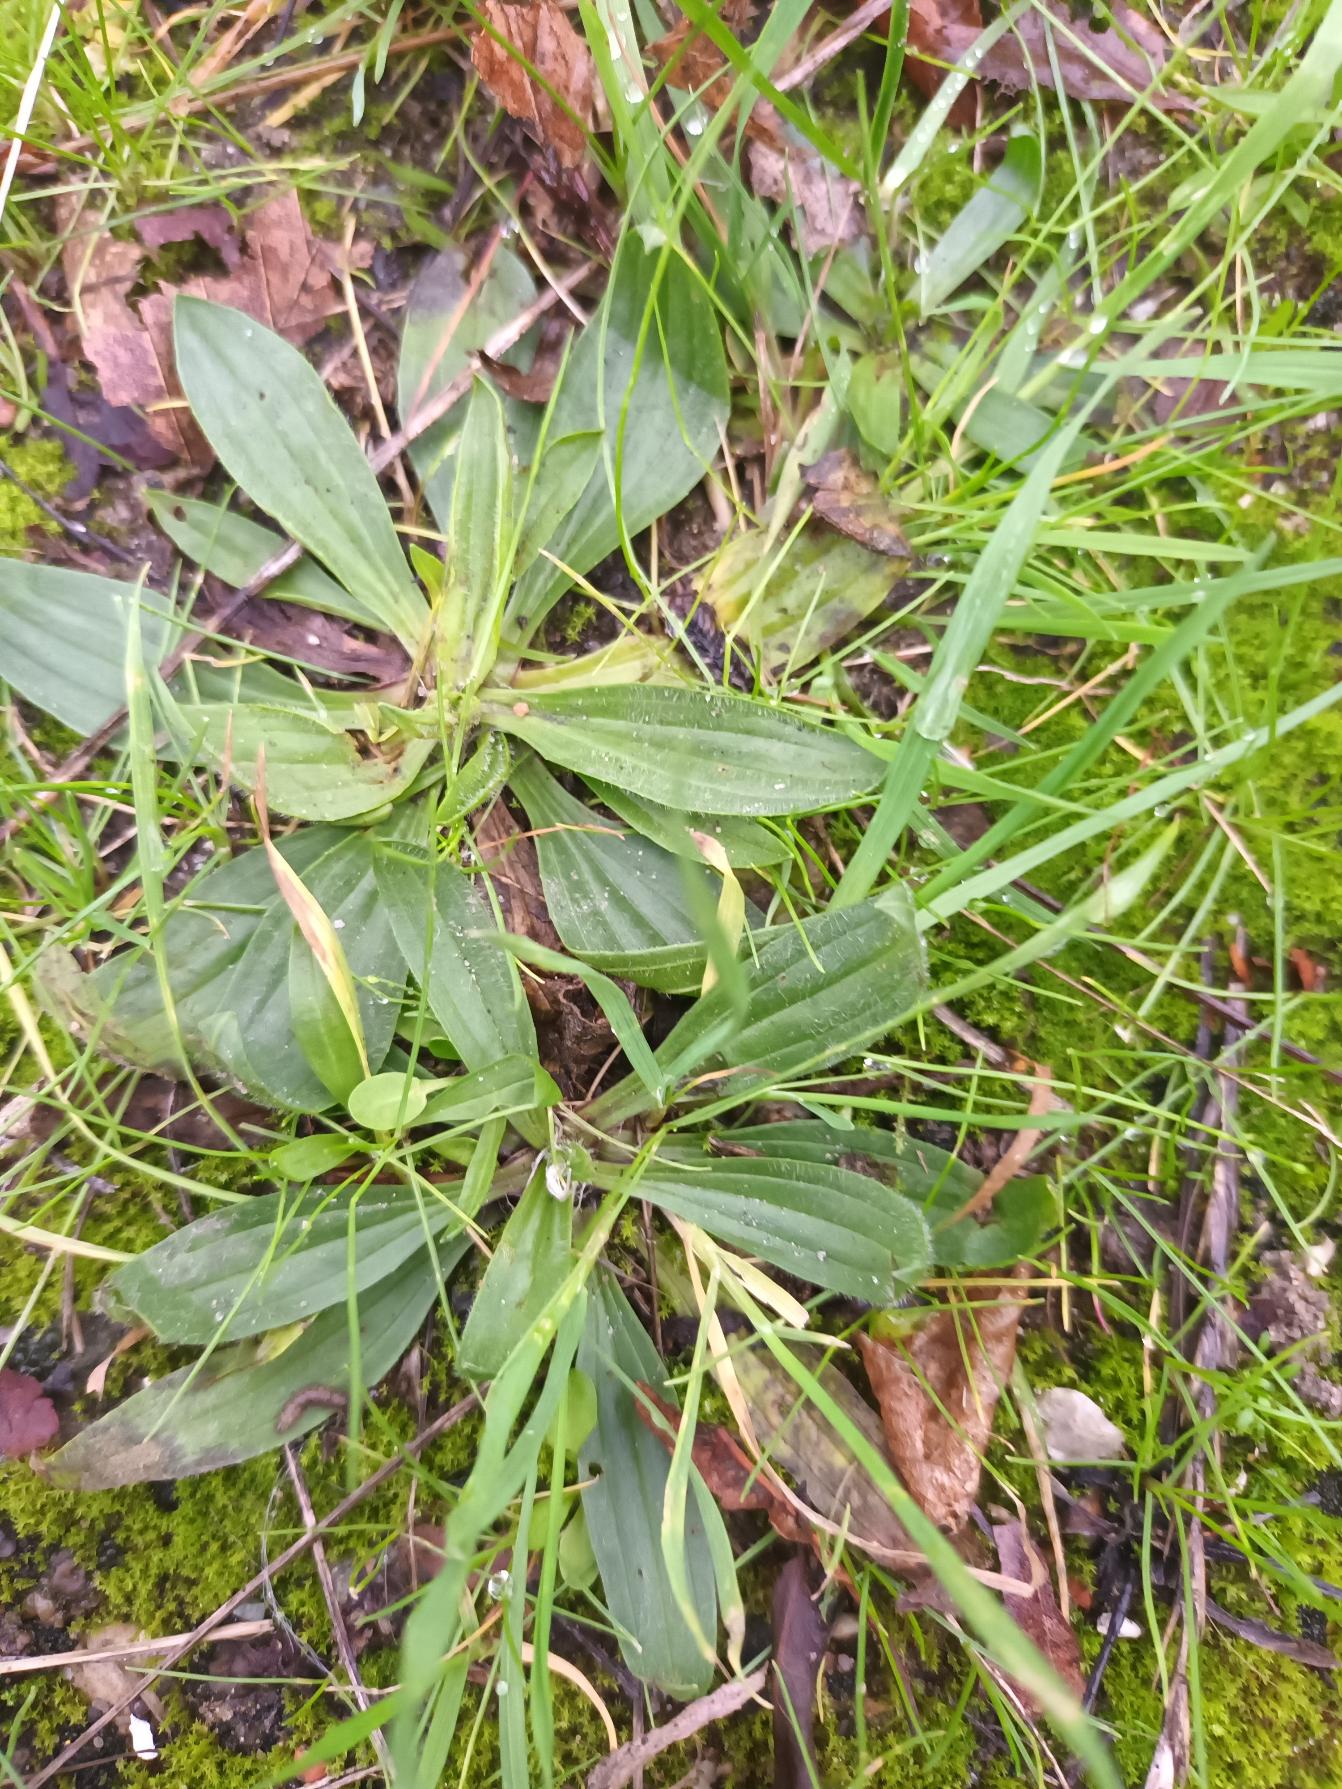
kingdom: Plantae
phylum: Tracheophyta
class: Magnoliopsida
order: Lamiales
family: Plantaginaceae
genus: Plantago
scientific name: Plantago lanceolata
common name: Lancet-vejbred
